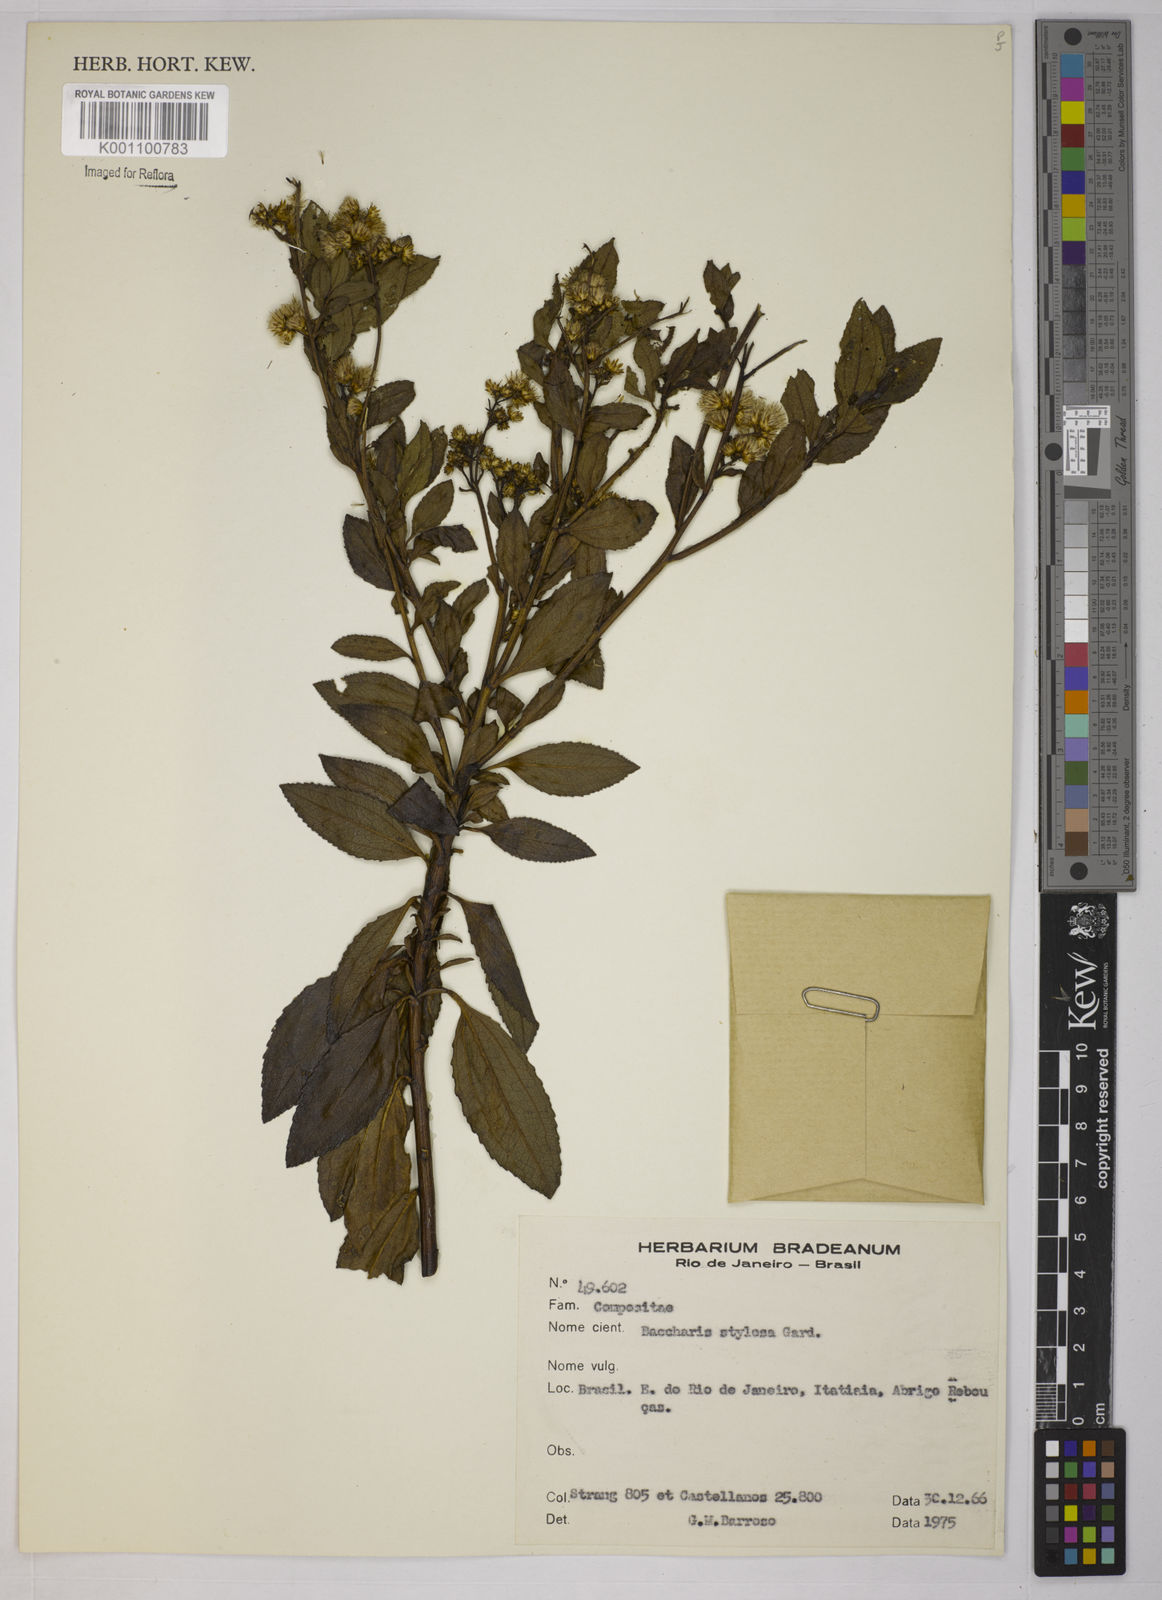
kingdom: Plantae
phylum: Tracheophyta
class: Magnoliopsida
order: Asterales
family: Asteraceae
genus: Baccharis
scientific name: Baccharis stylosa
